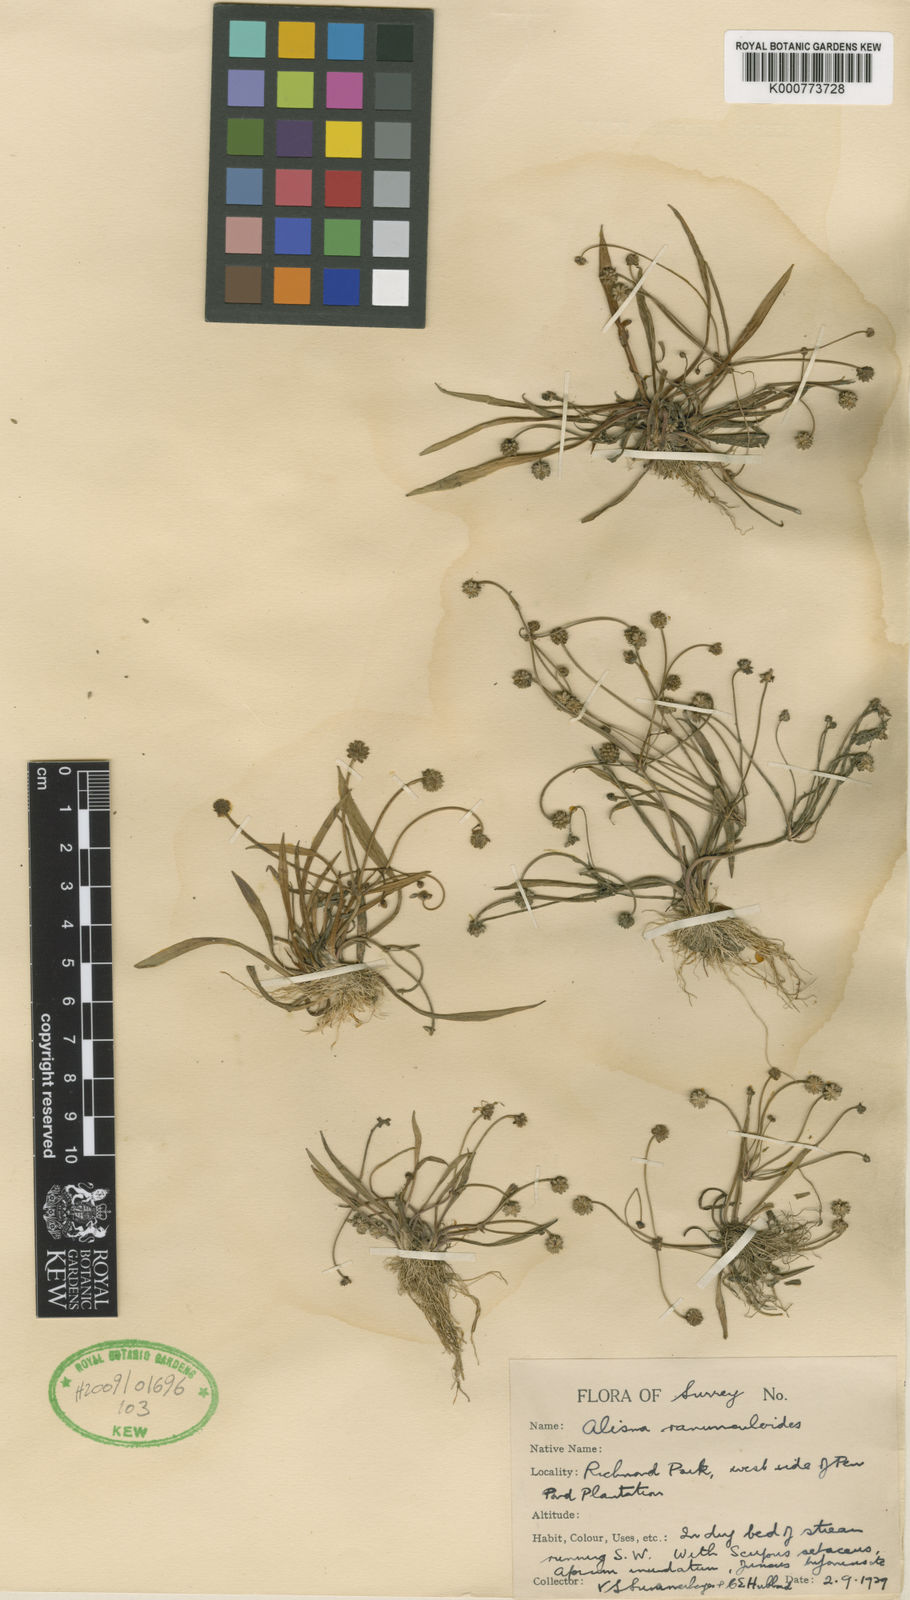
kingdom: Plantae
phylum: Tracheophyta
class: Liliopsida
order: Alismatales
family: Alismataceae
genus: Baldellia
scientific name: Baldellia ranunculoides
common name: Lesser water-plantain
